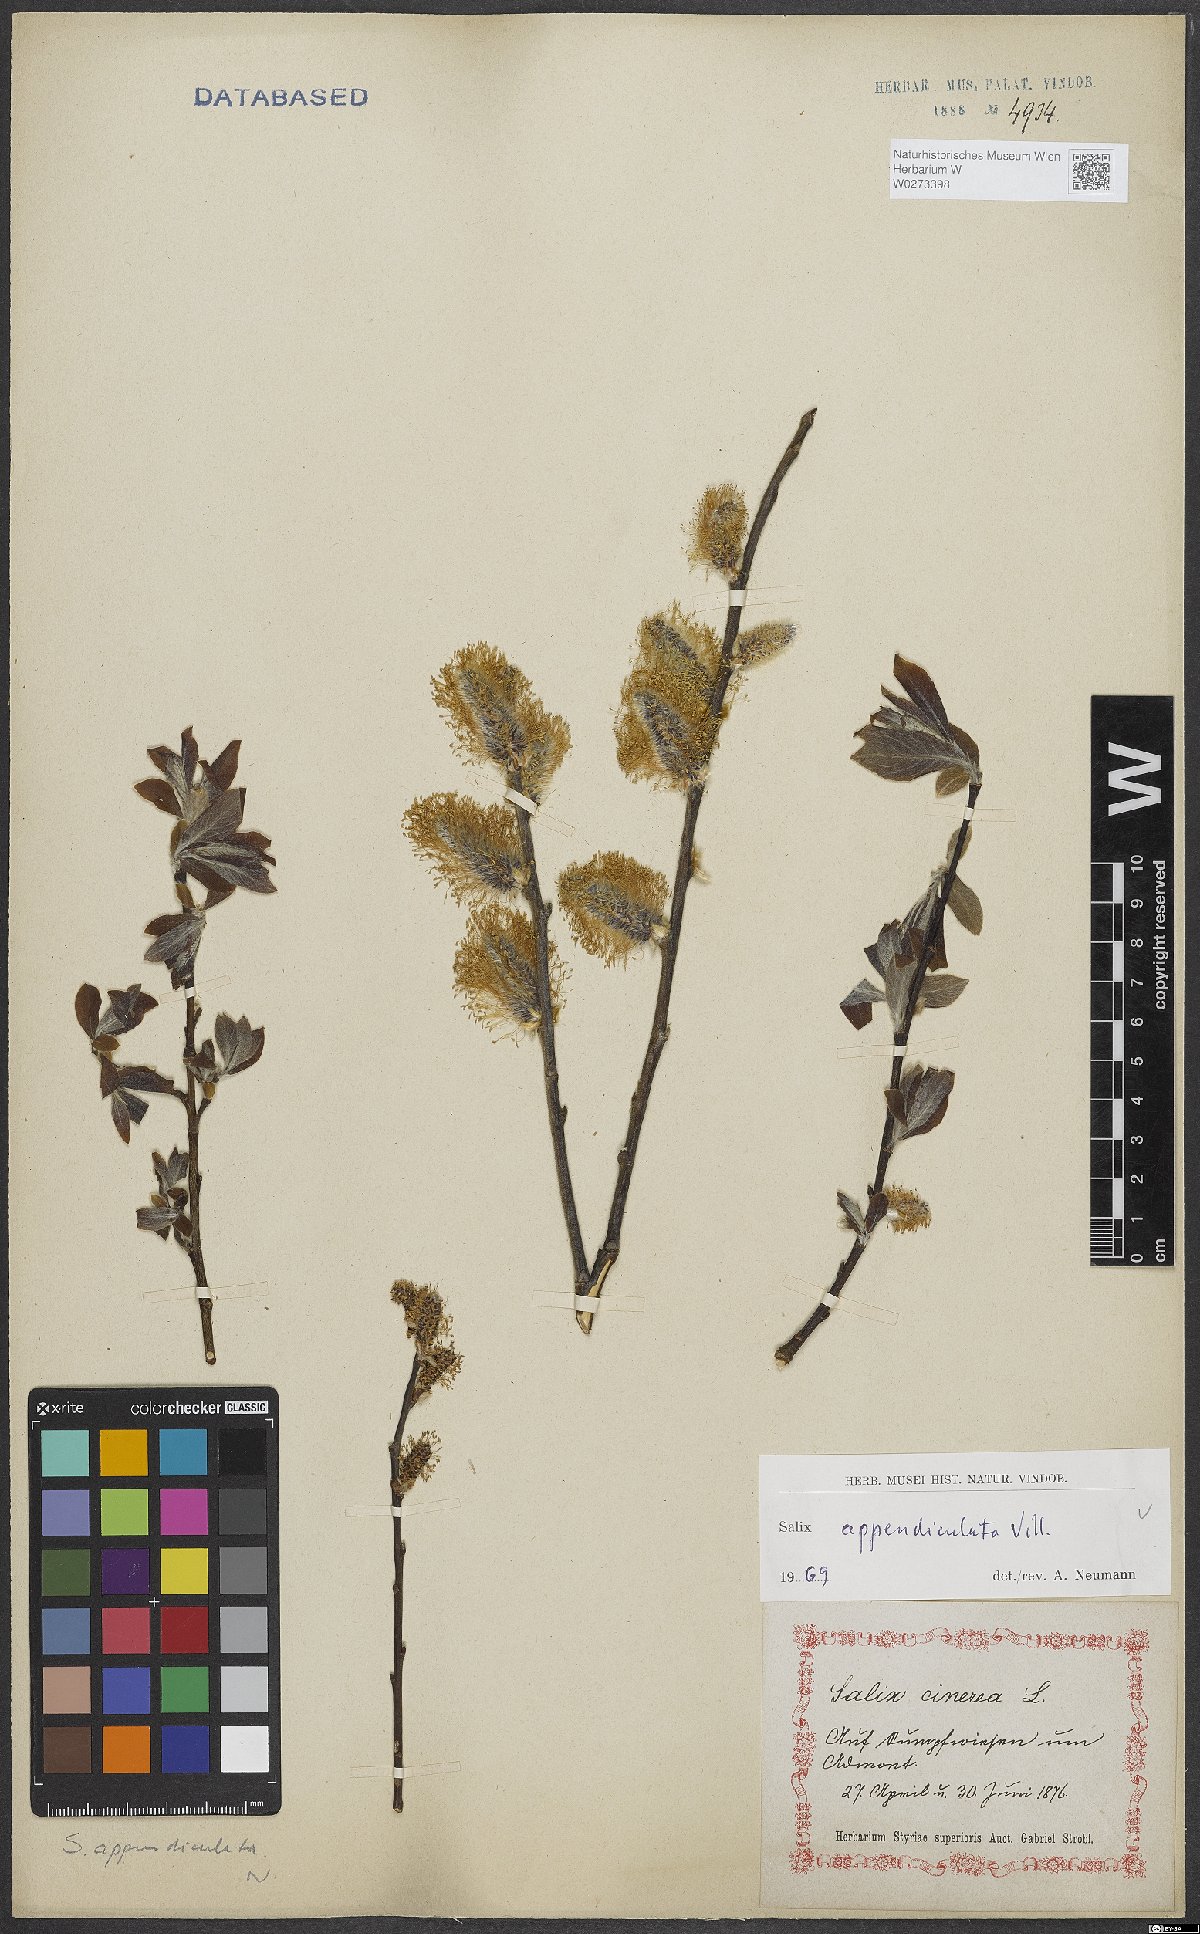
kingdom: Plantae
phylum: Tracheophyta
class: Magnoliopsida
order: Malpighiales
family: Salicaceae
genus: Salix
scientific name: Salix appendiculata
